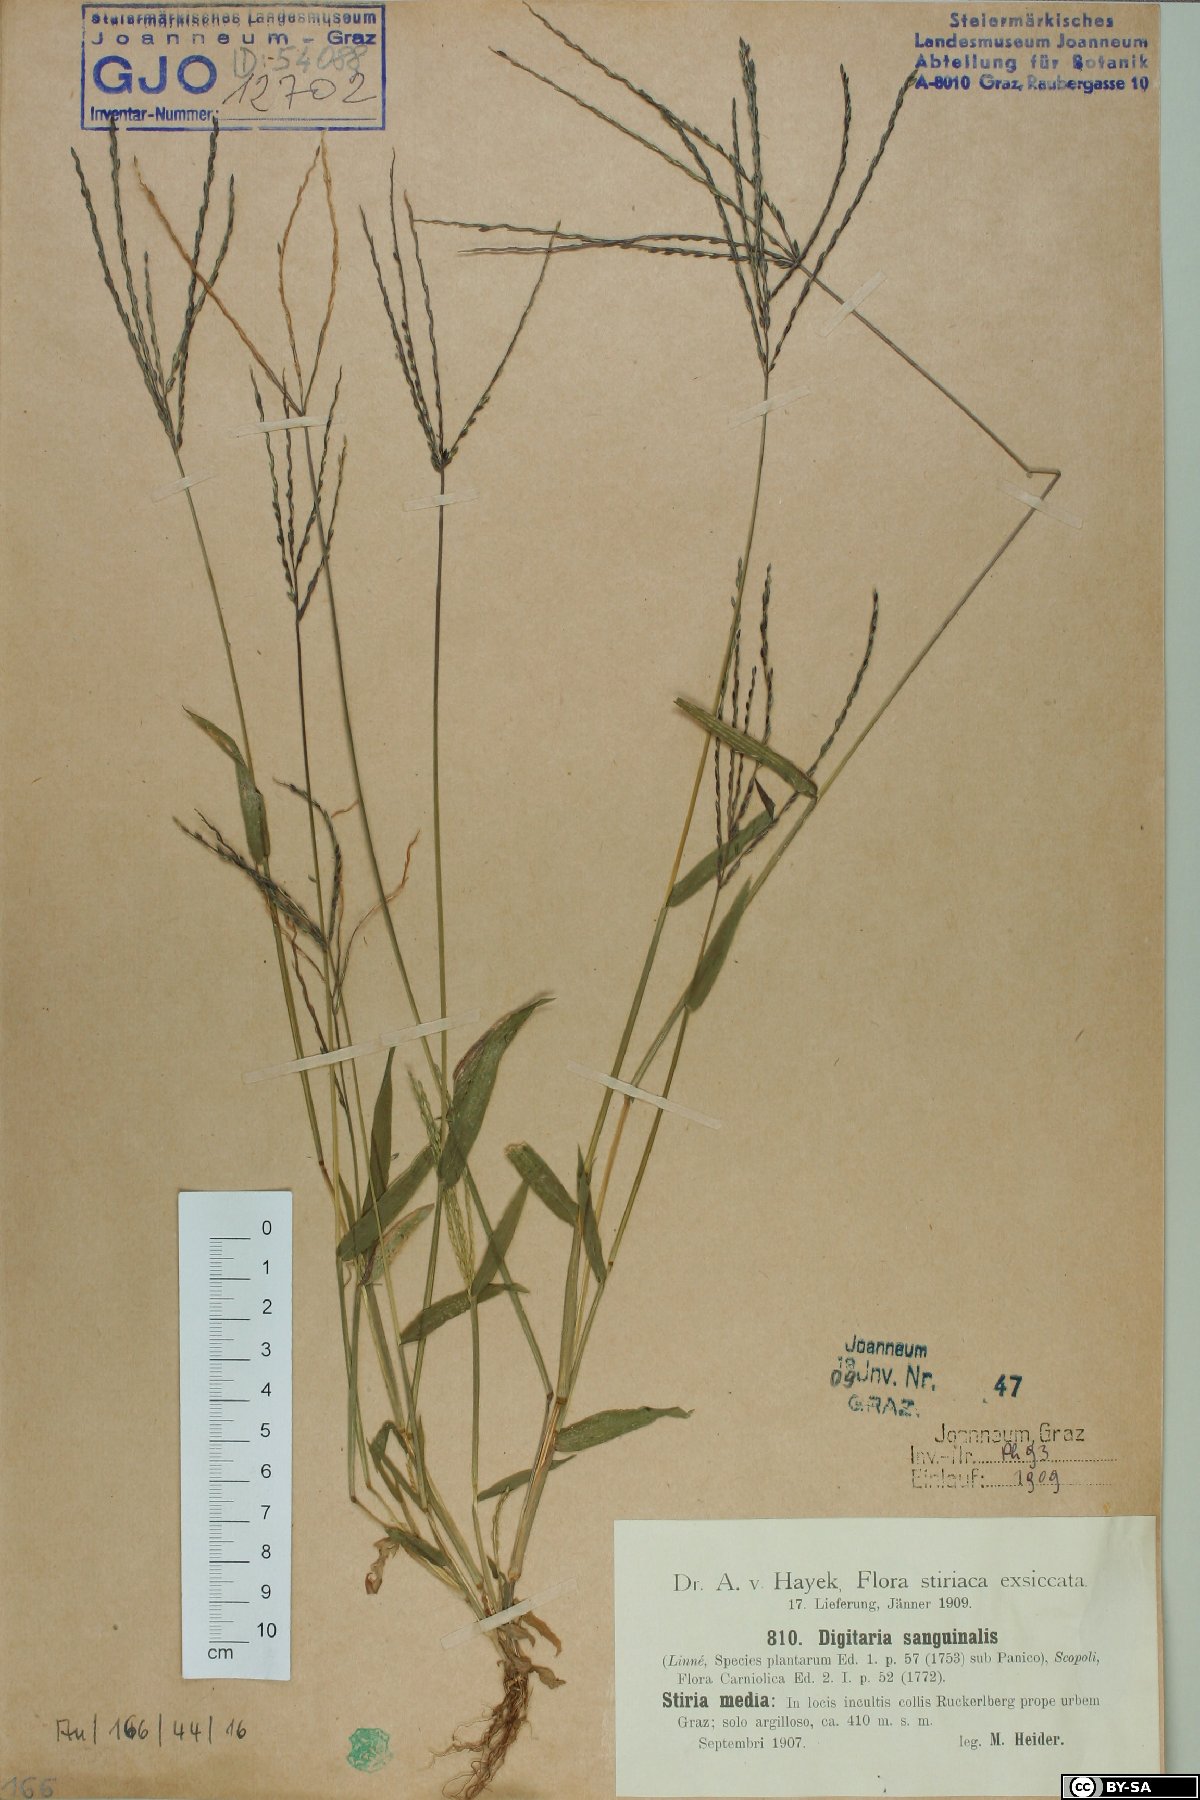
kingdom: Plantae
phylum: Tracheophyta
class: Liliopsida
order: Poales
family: Poaceae
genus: Digitaria
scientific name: Digitaria sanguinalis
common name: Hairy crabgrass
